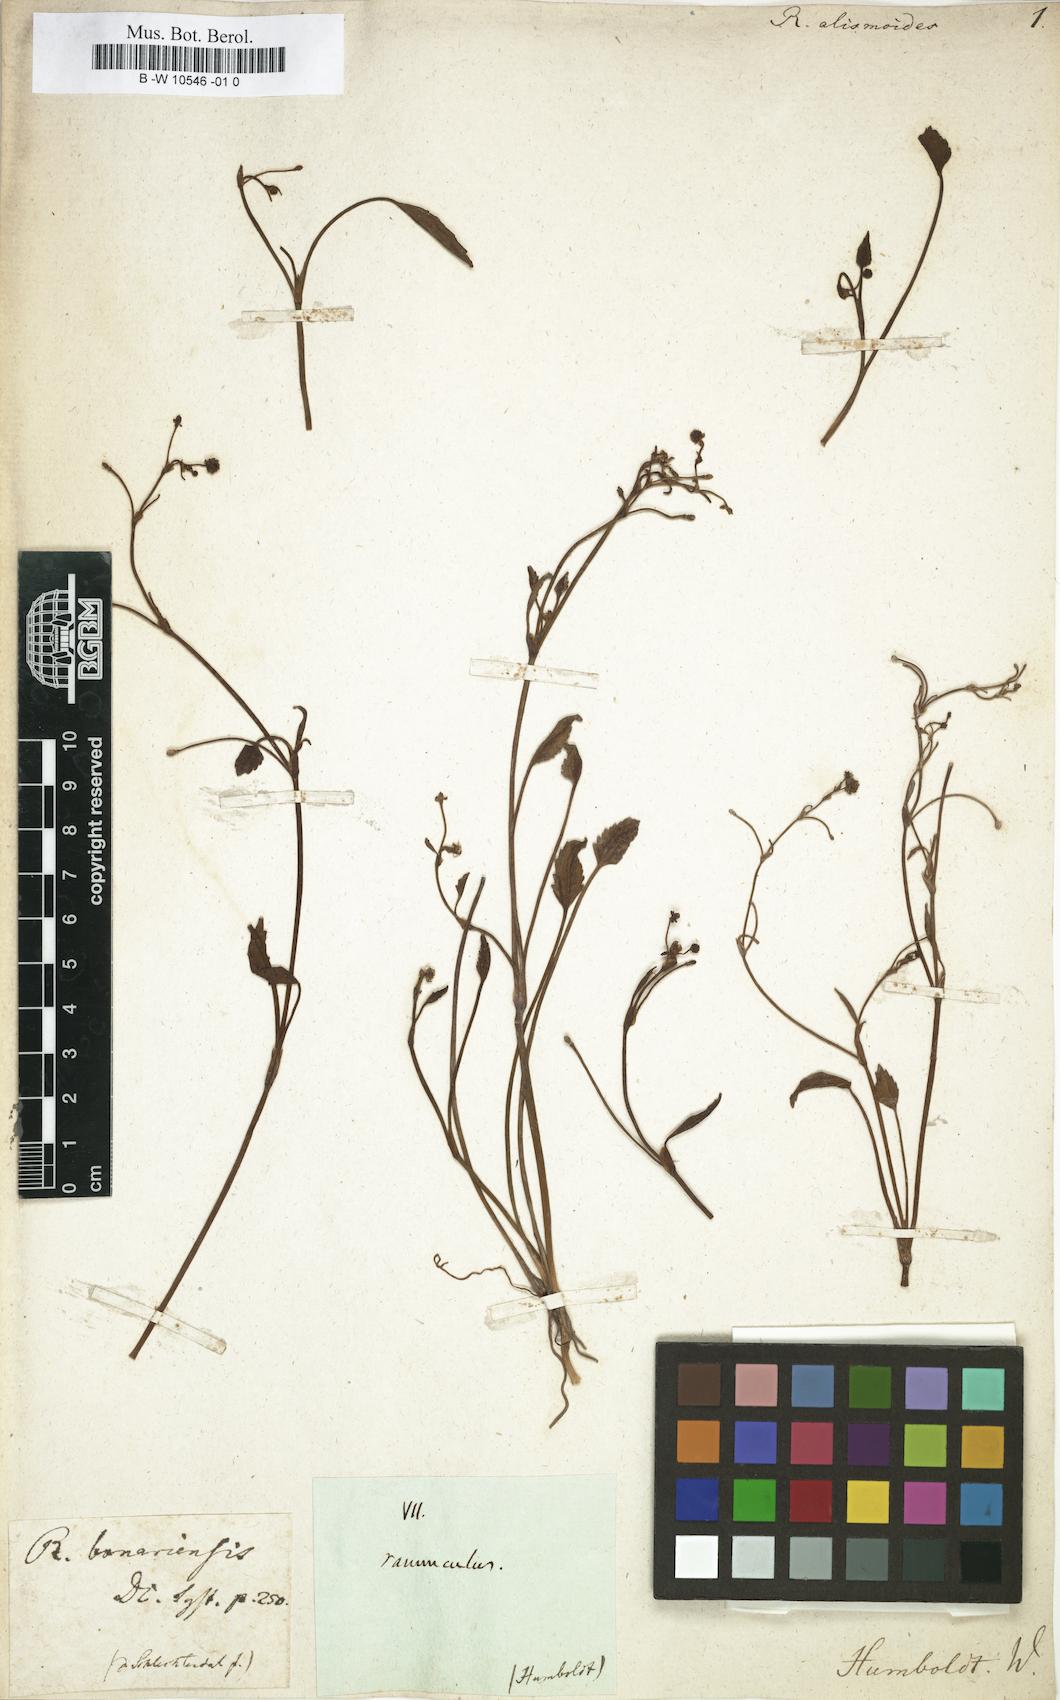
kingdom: Plantae
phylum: Tracheophyta
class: Magnoliopsida
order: Ranunculales
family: Ranunculaceae
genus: Ranunculus
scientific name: Ranunculus angustifolius
